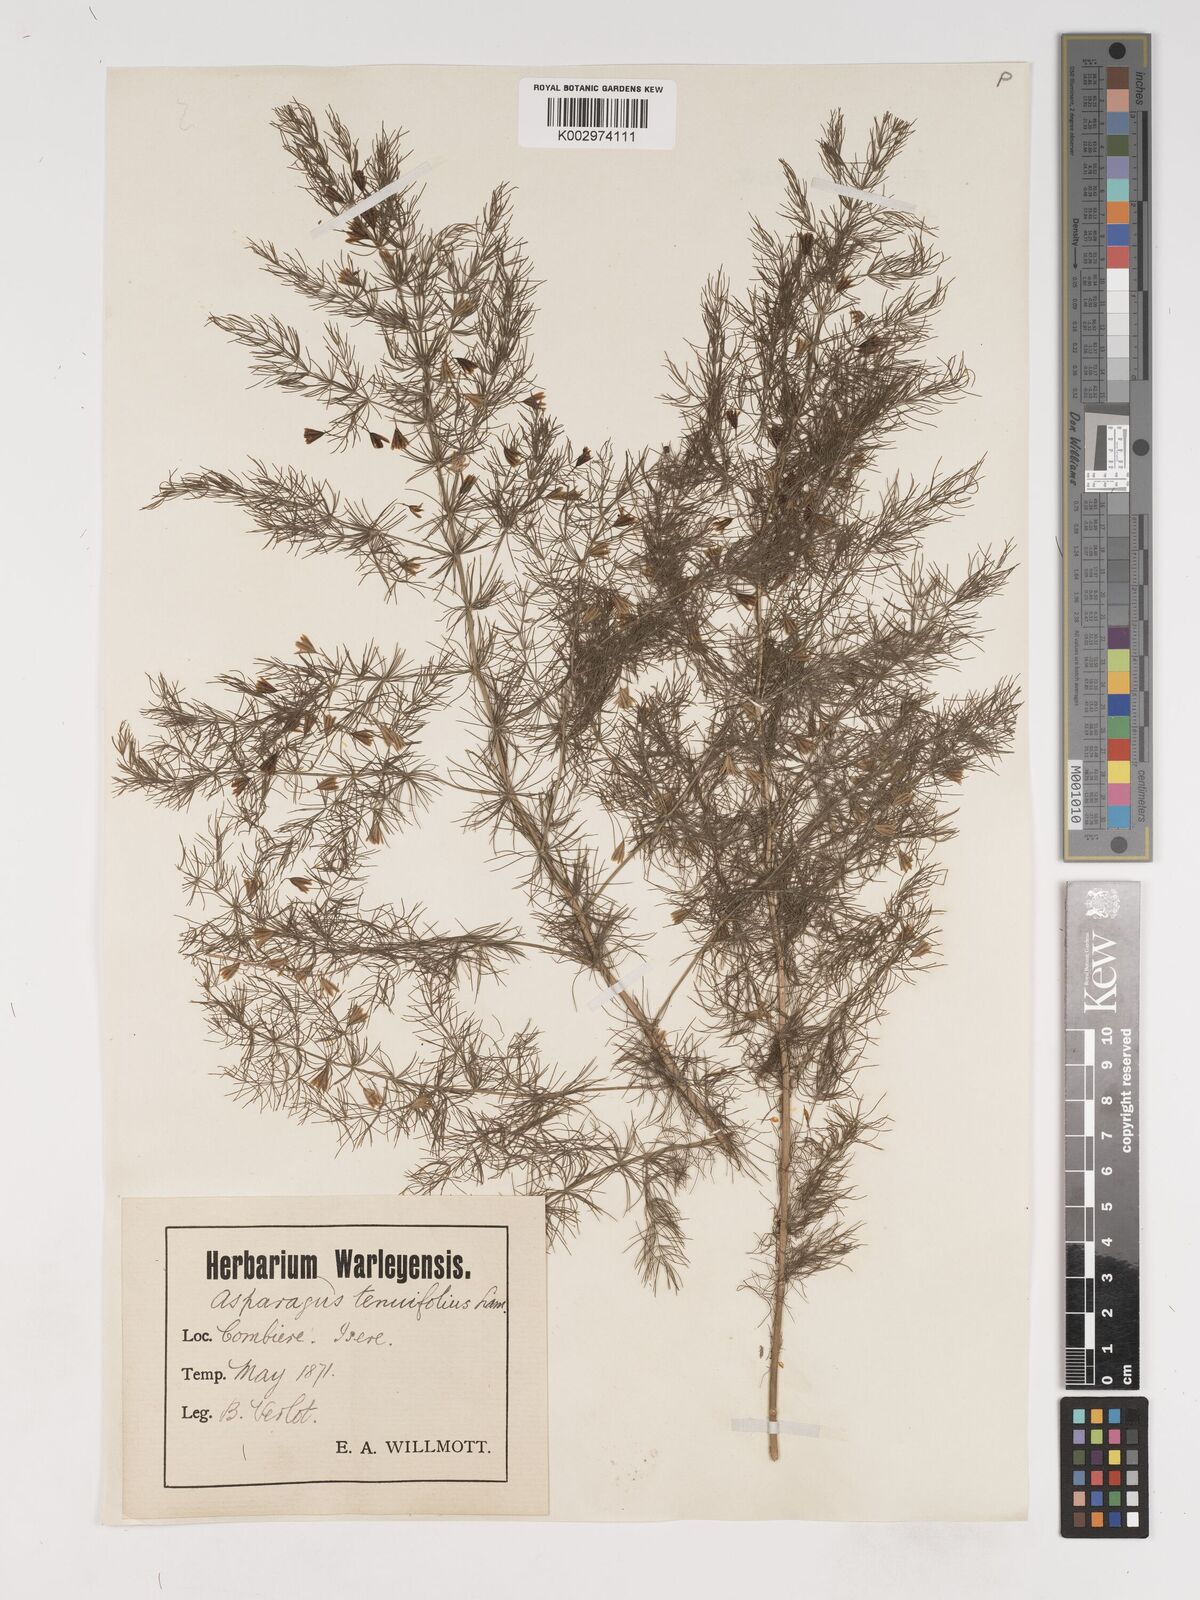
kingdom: Plantae
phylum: Tracheophyta
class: Liliopsida
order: Asparagales
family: Asparagaceae
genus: Asparagus
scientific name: Asparagus tenuifolius
